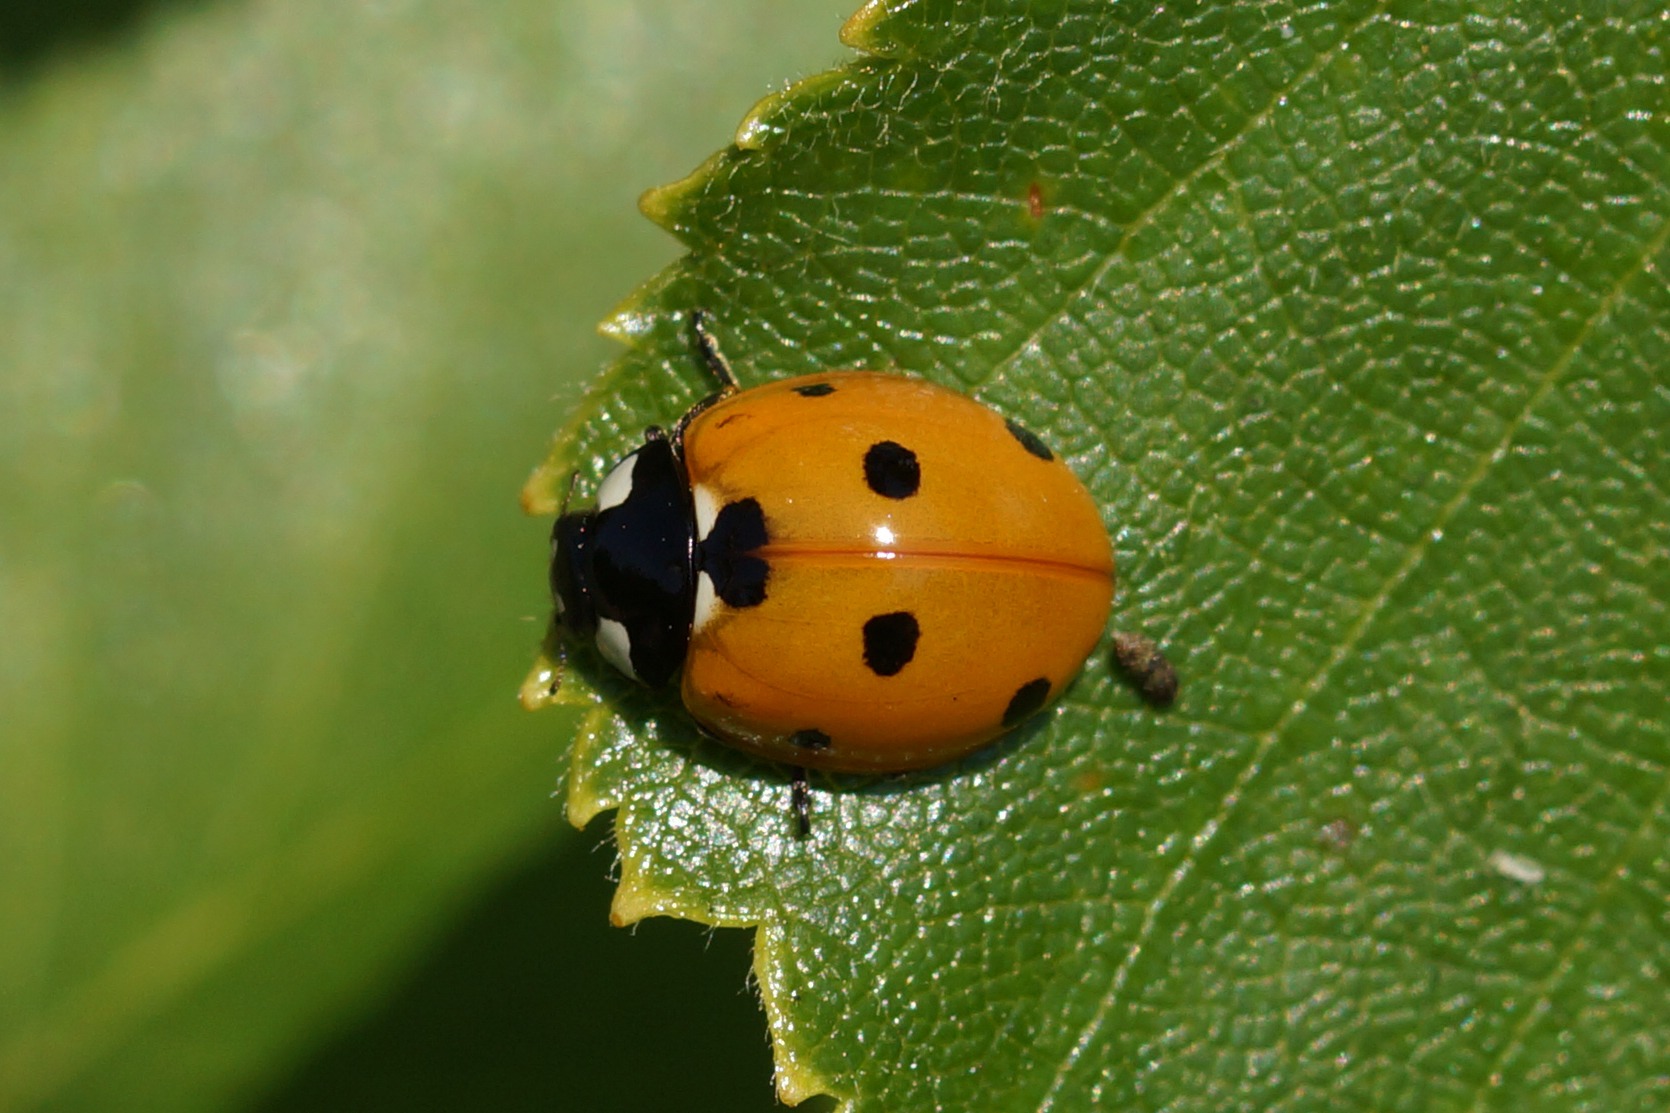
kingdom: Animalia
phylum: Arthropoda
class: Insecta
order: Coleoptera
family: Coccinellidae
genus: Coccinella
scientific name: Coccinella septempunctata
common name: Syvplettet mariehøne
